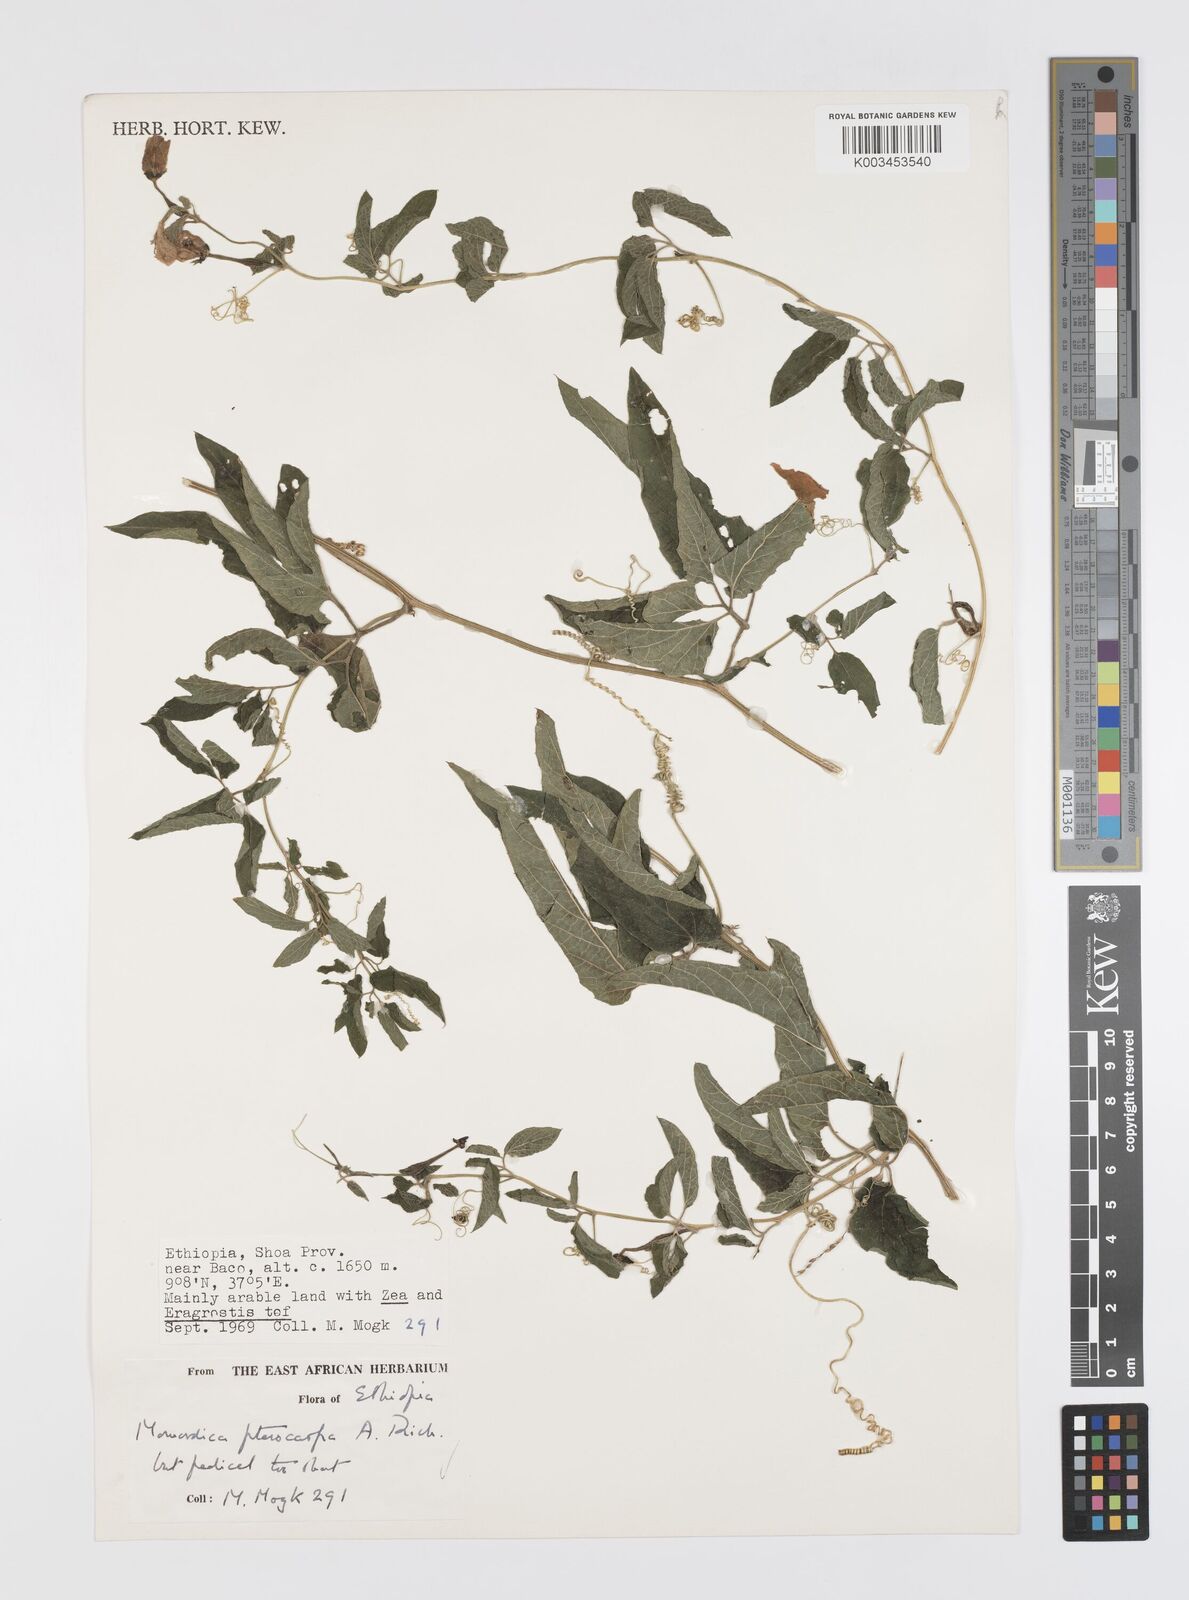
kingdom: Plantae
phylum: Tracheophyta
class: Magnoliopsida
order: Cucurbitales
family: Cucurbitaceae
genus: Momordica
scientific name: Momordica pterocarpa
